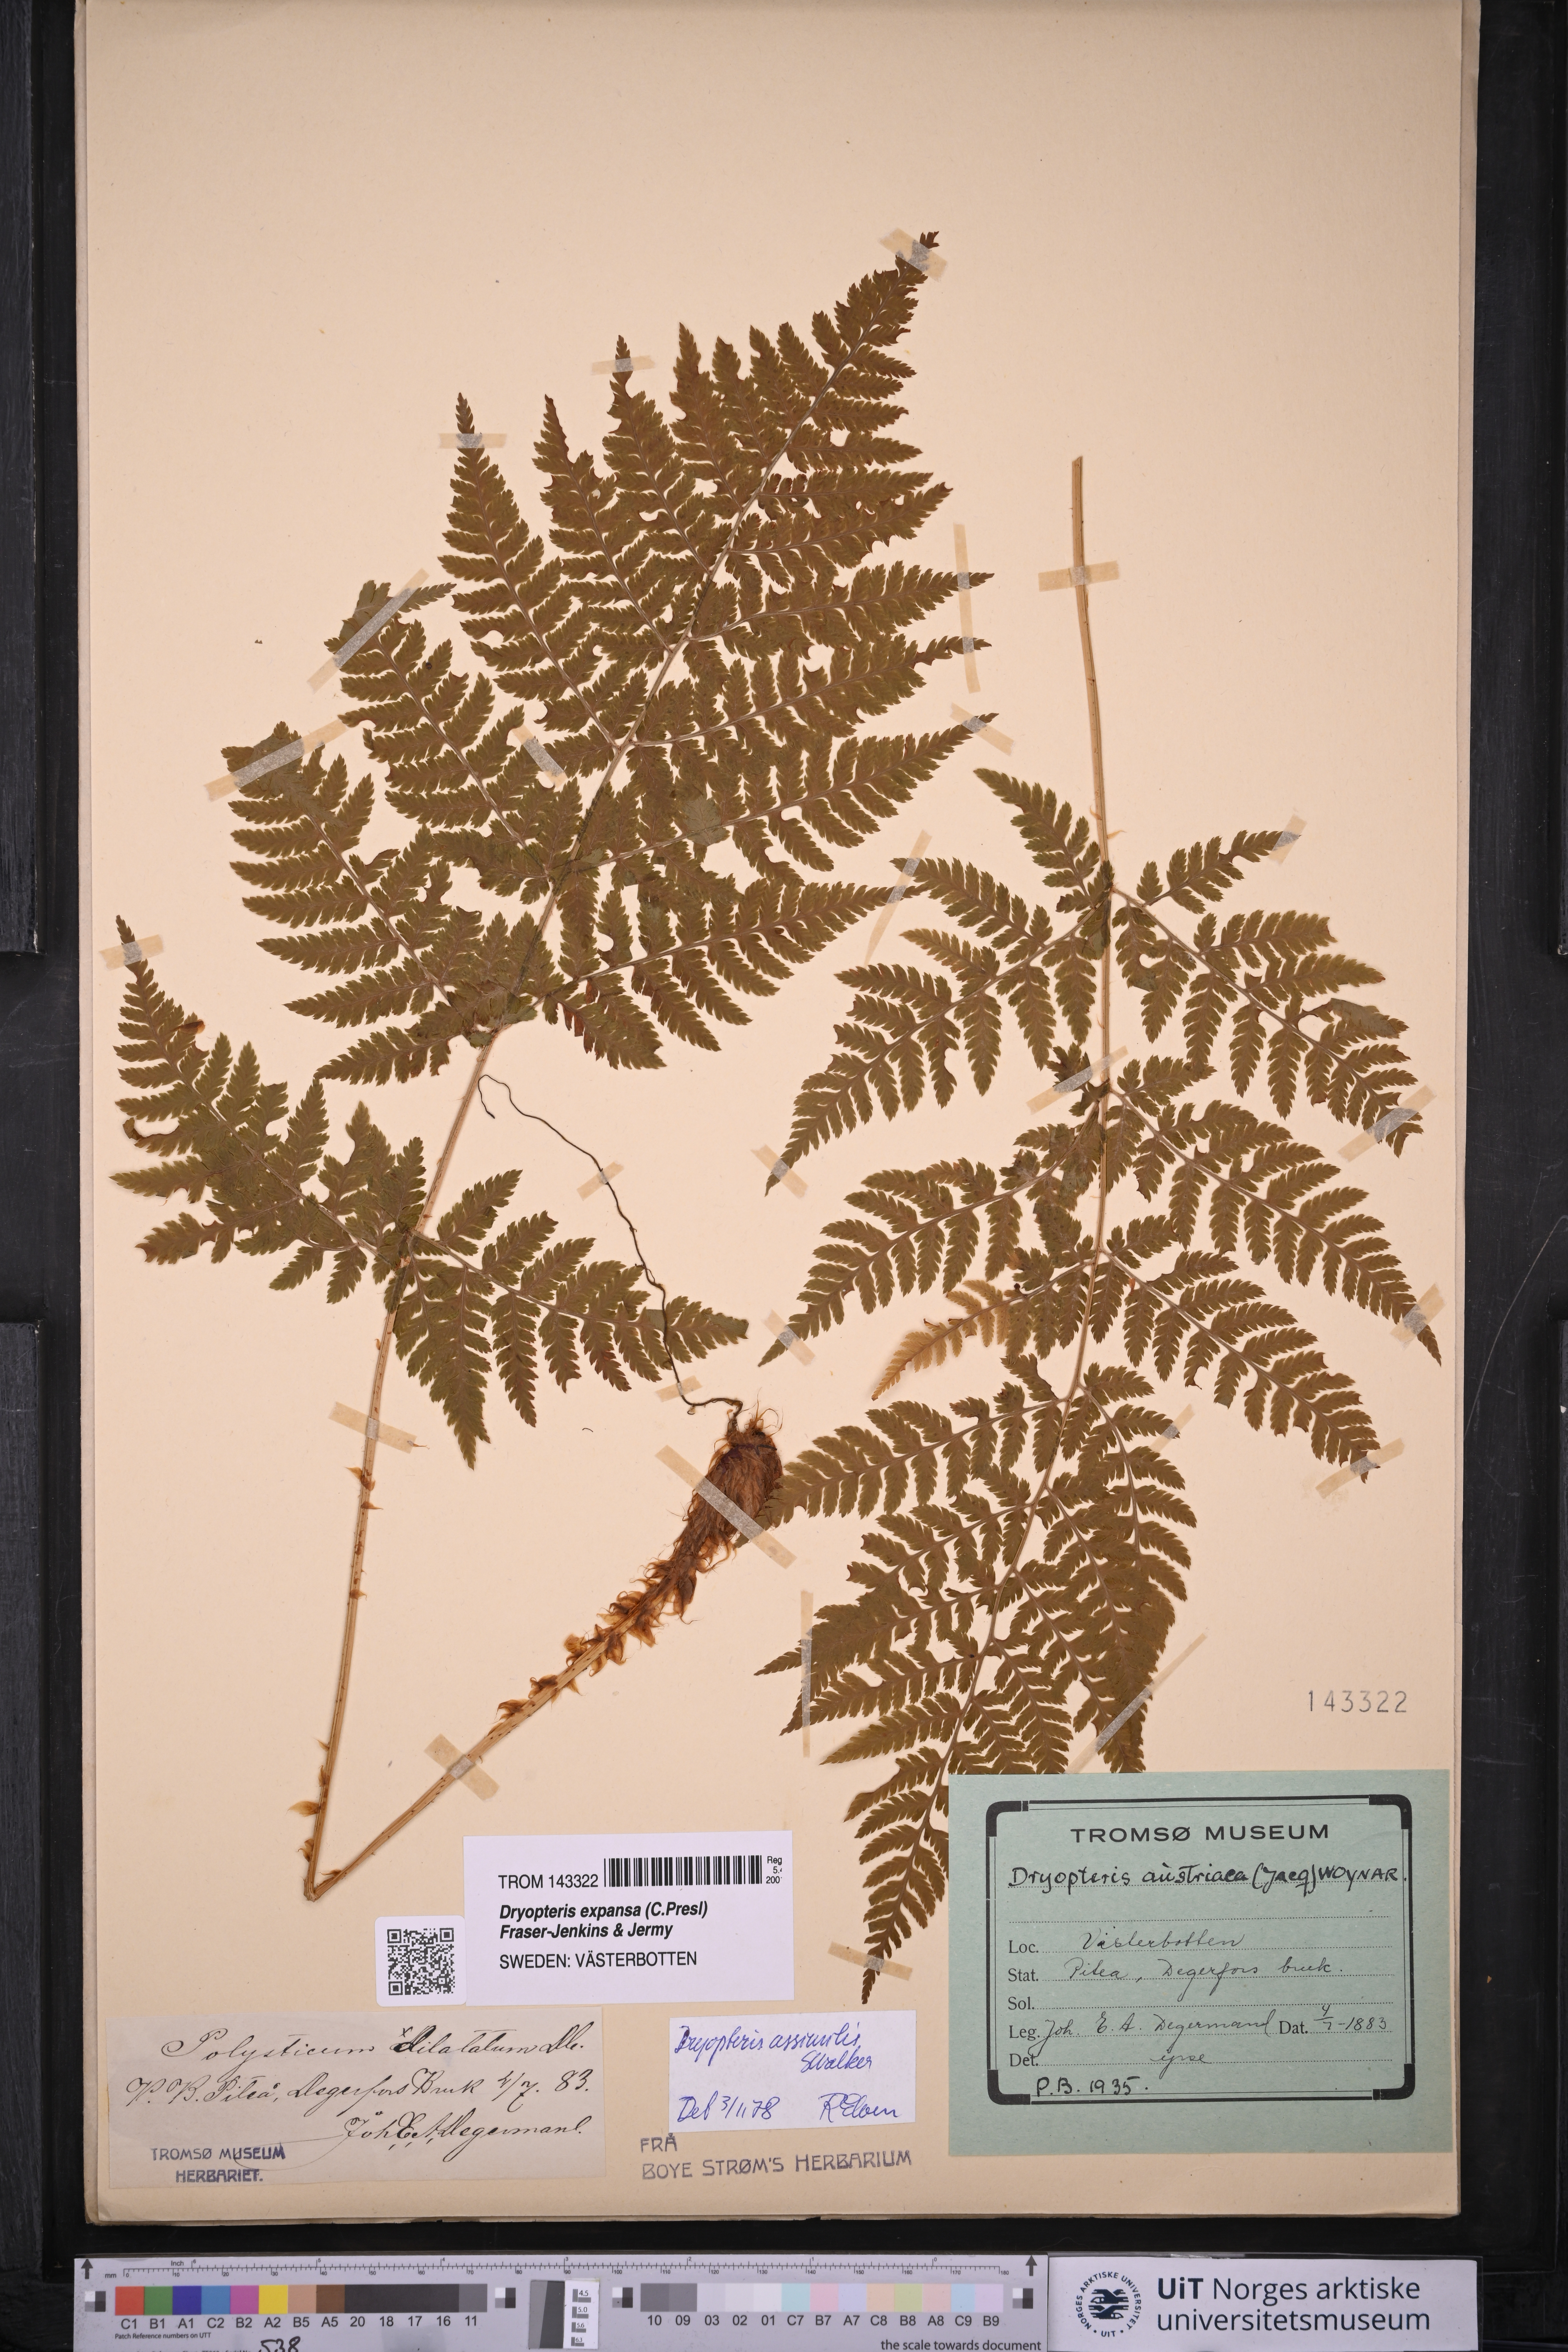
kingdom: Plantae
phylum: Tracheophyta
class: Polypodiopsida
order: Polypodiales
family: Dryopteridaceae
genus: Dryopteris
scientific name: Dryopteris expansa
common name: Northern buckler fern
